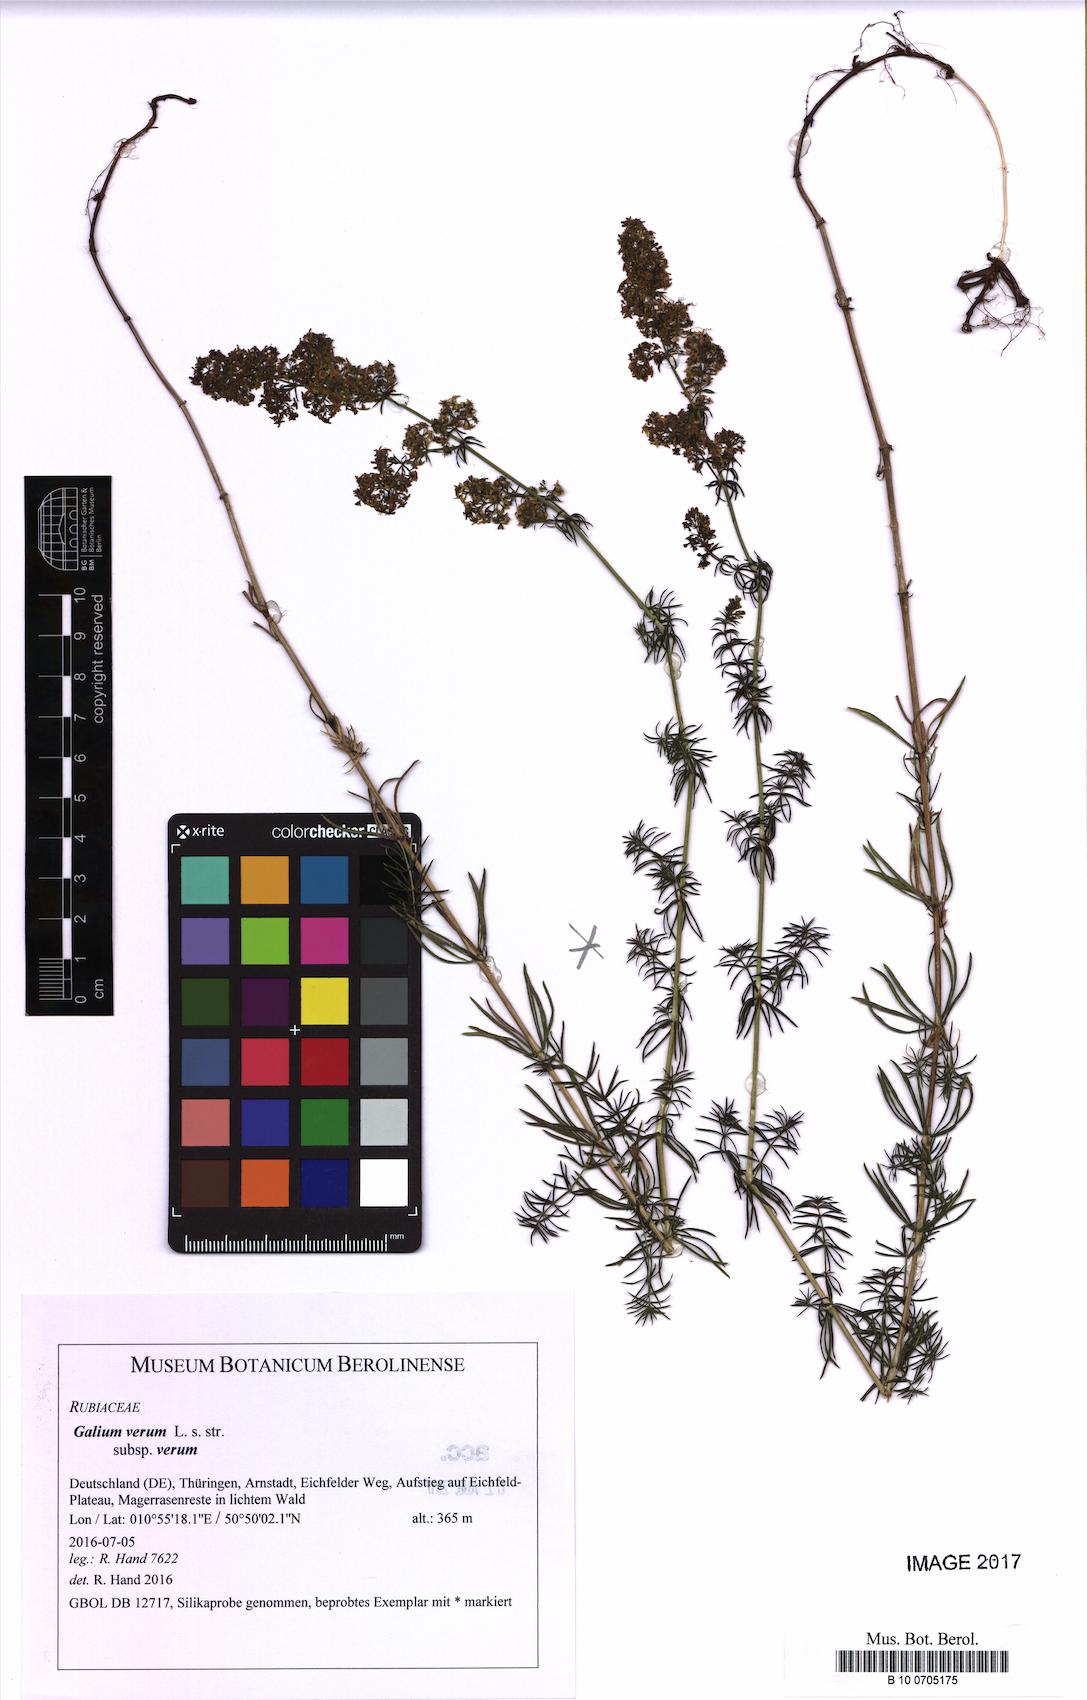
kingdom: Plantae
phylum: Tracheophyta
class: Magnoliopsida
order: Gentianales
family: Rubiaceae
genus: Galium
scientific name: Galium verum
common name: Lady's bedstraw
